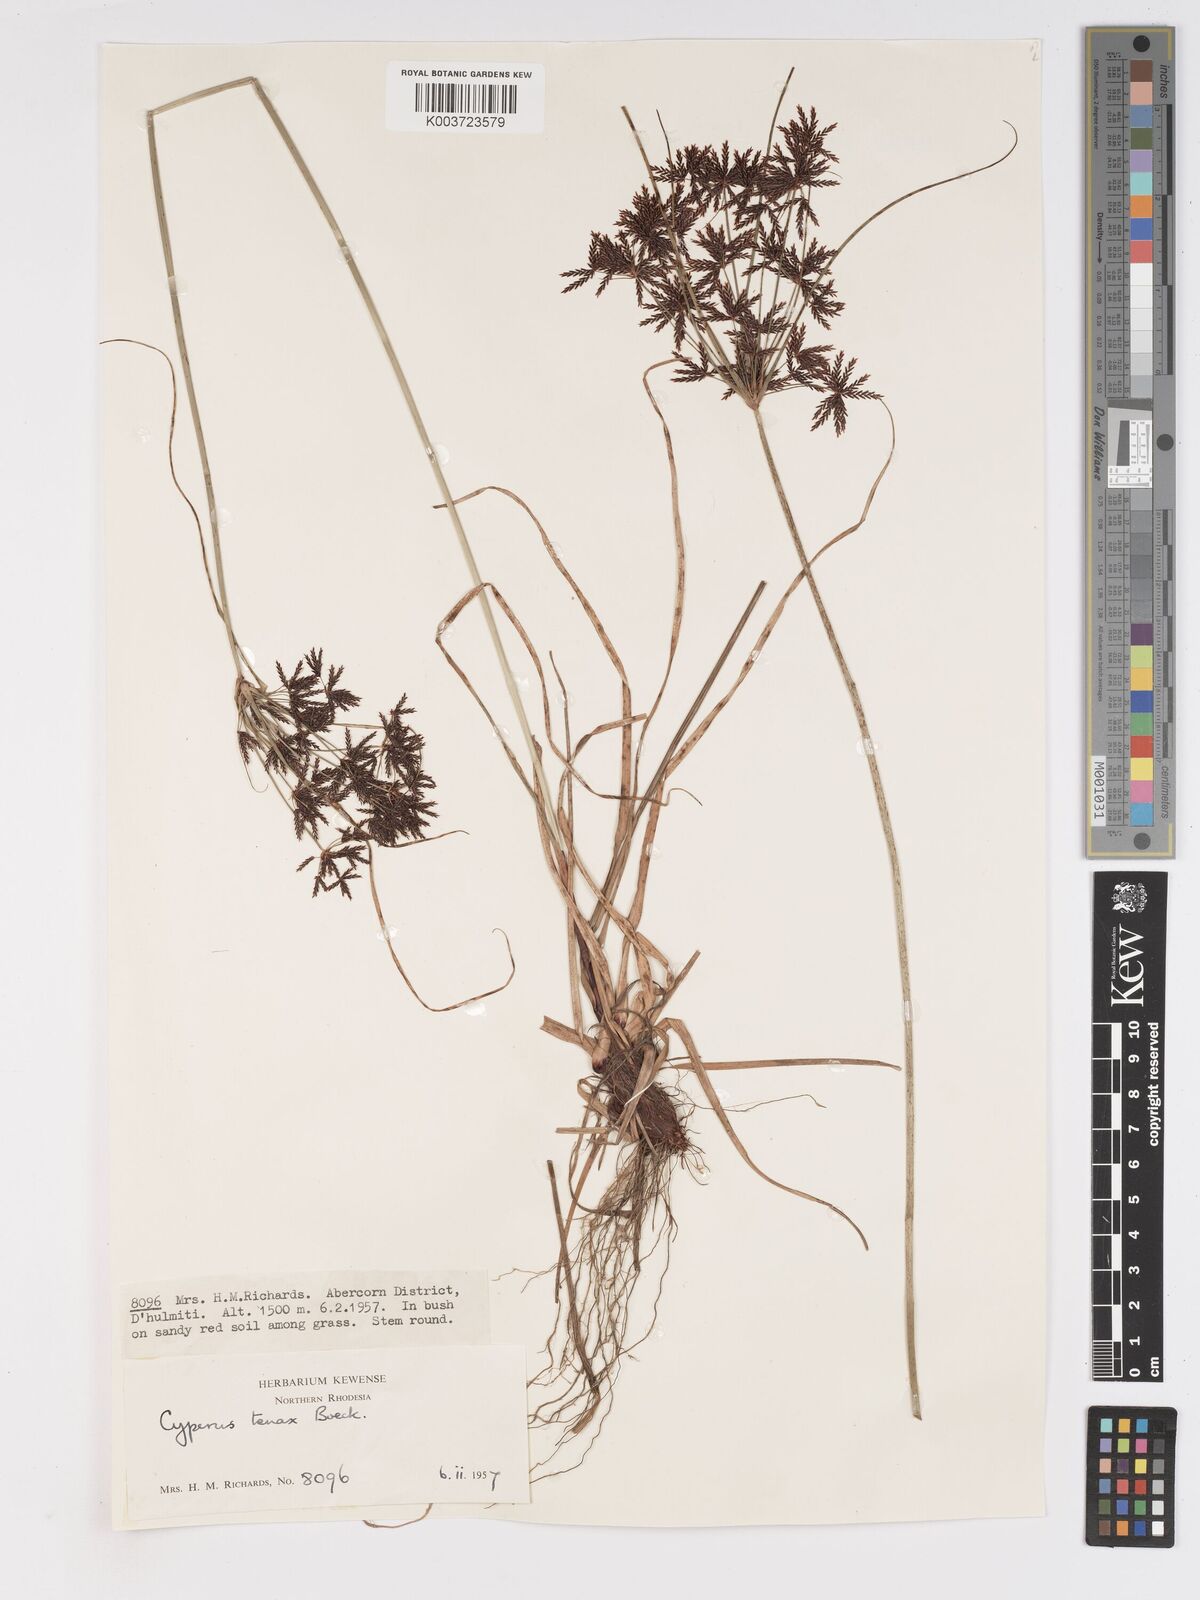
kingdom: Plantae
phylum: Tracheophyta
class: Liliopsida
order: Poales
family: Cyperaceae
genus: Cyperus
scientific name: Cyperus tenax
